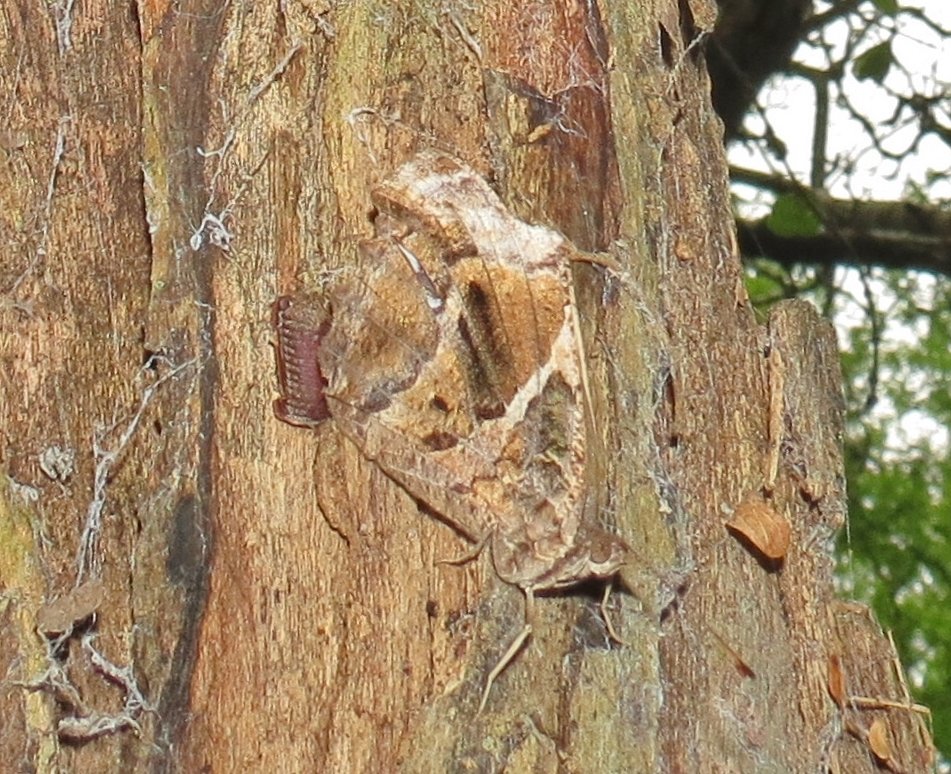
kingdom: Animalia
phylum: Arthropoda
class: Insecta
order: Lepidoptera
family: Nymphalidae
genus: Myscelia
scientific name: Myscelia ethusa
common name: Mexican Bluewing
